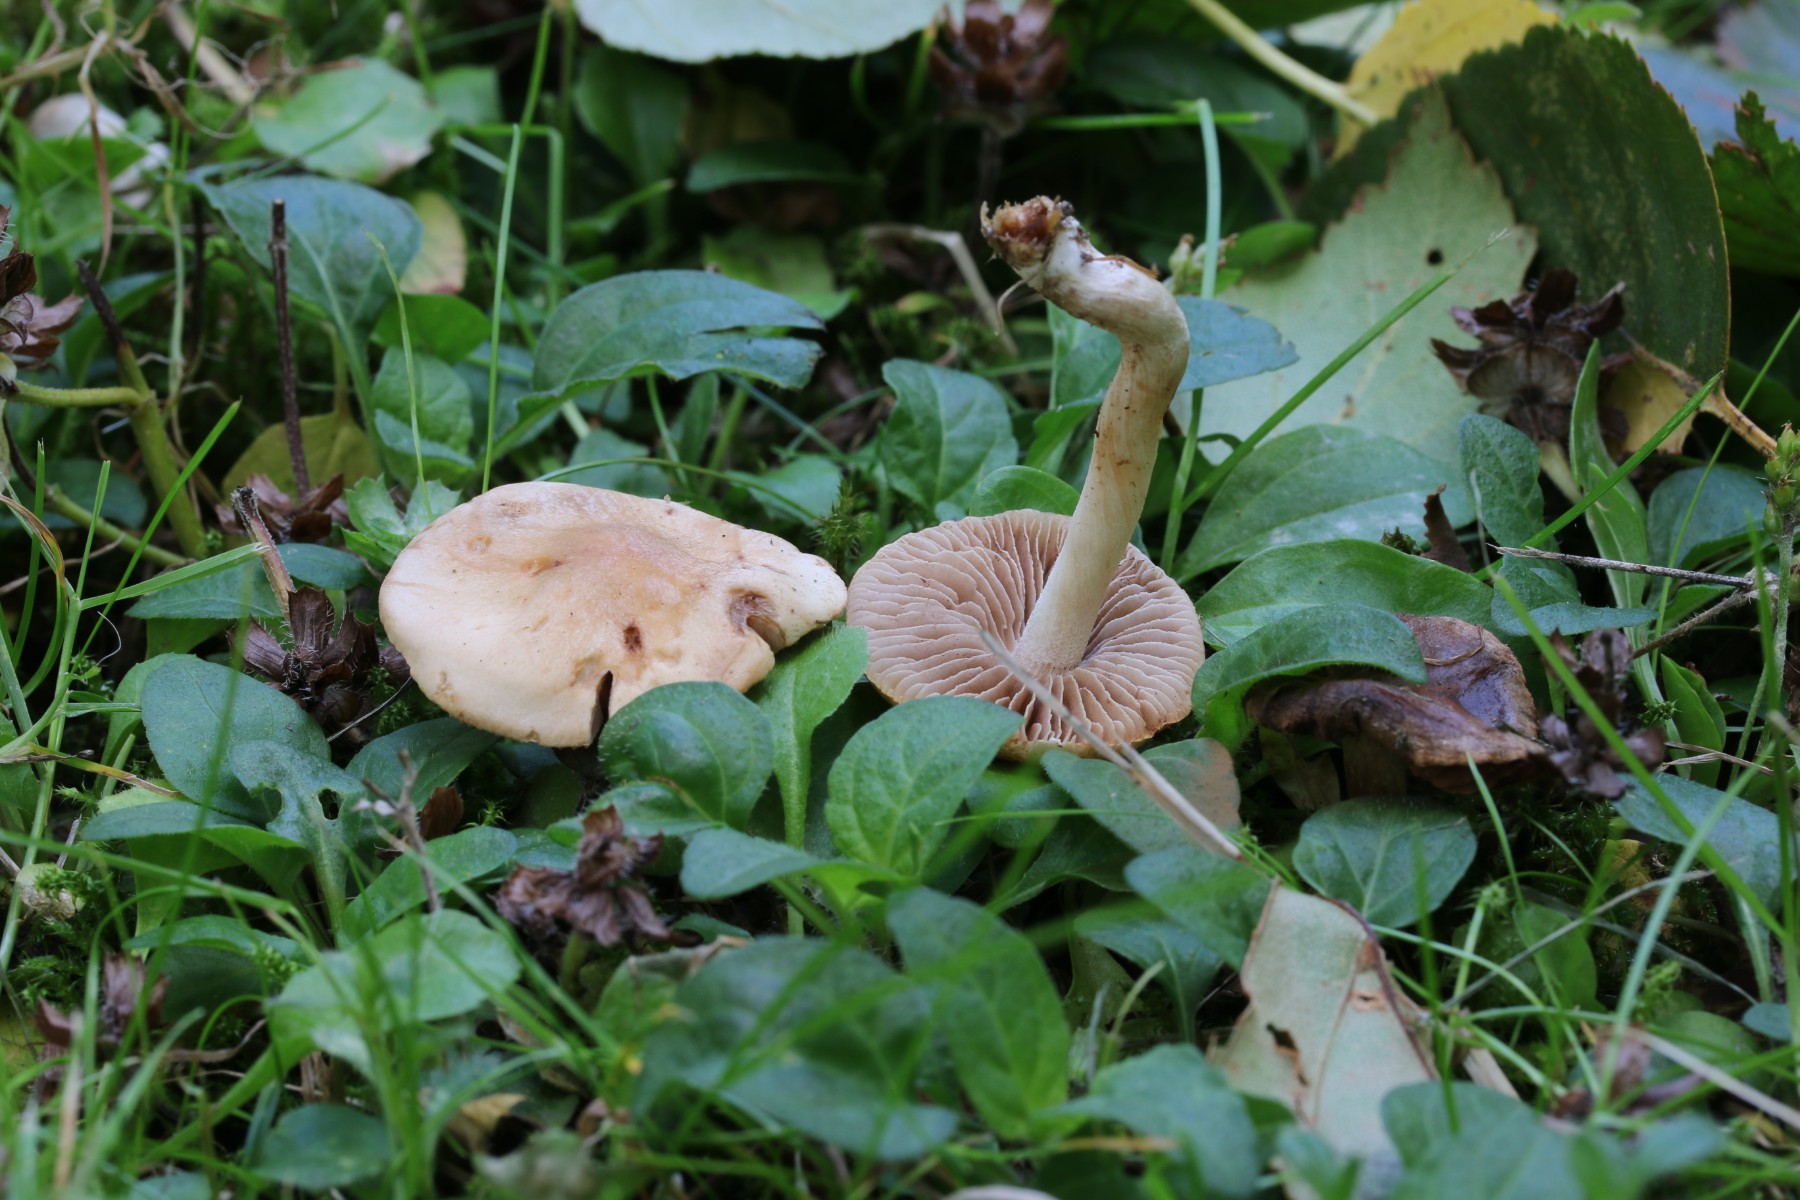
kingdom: Fungi
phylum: Basidiomycota
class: Agaricomycetes
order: Agaricales
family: Hymenogastraceae
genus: Hebeloma
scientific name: Hebeloma
